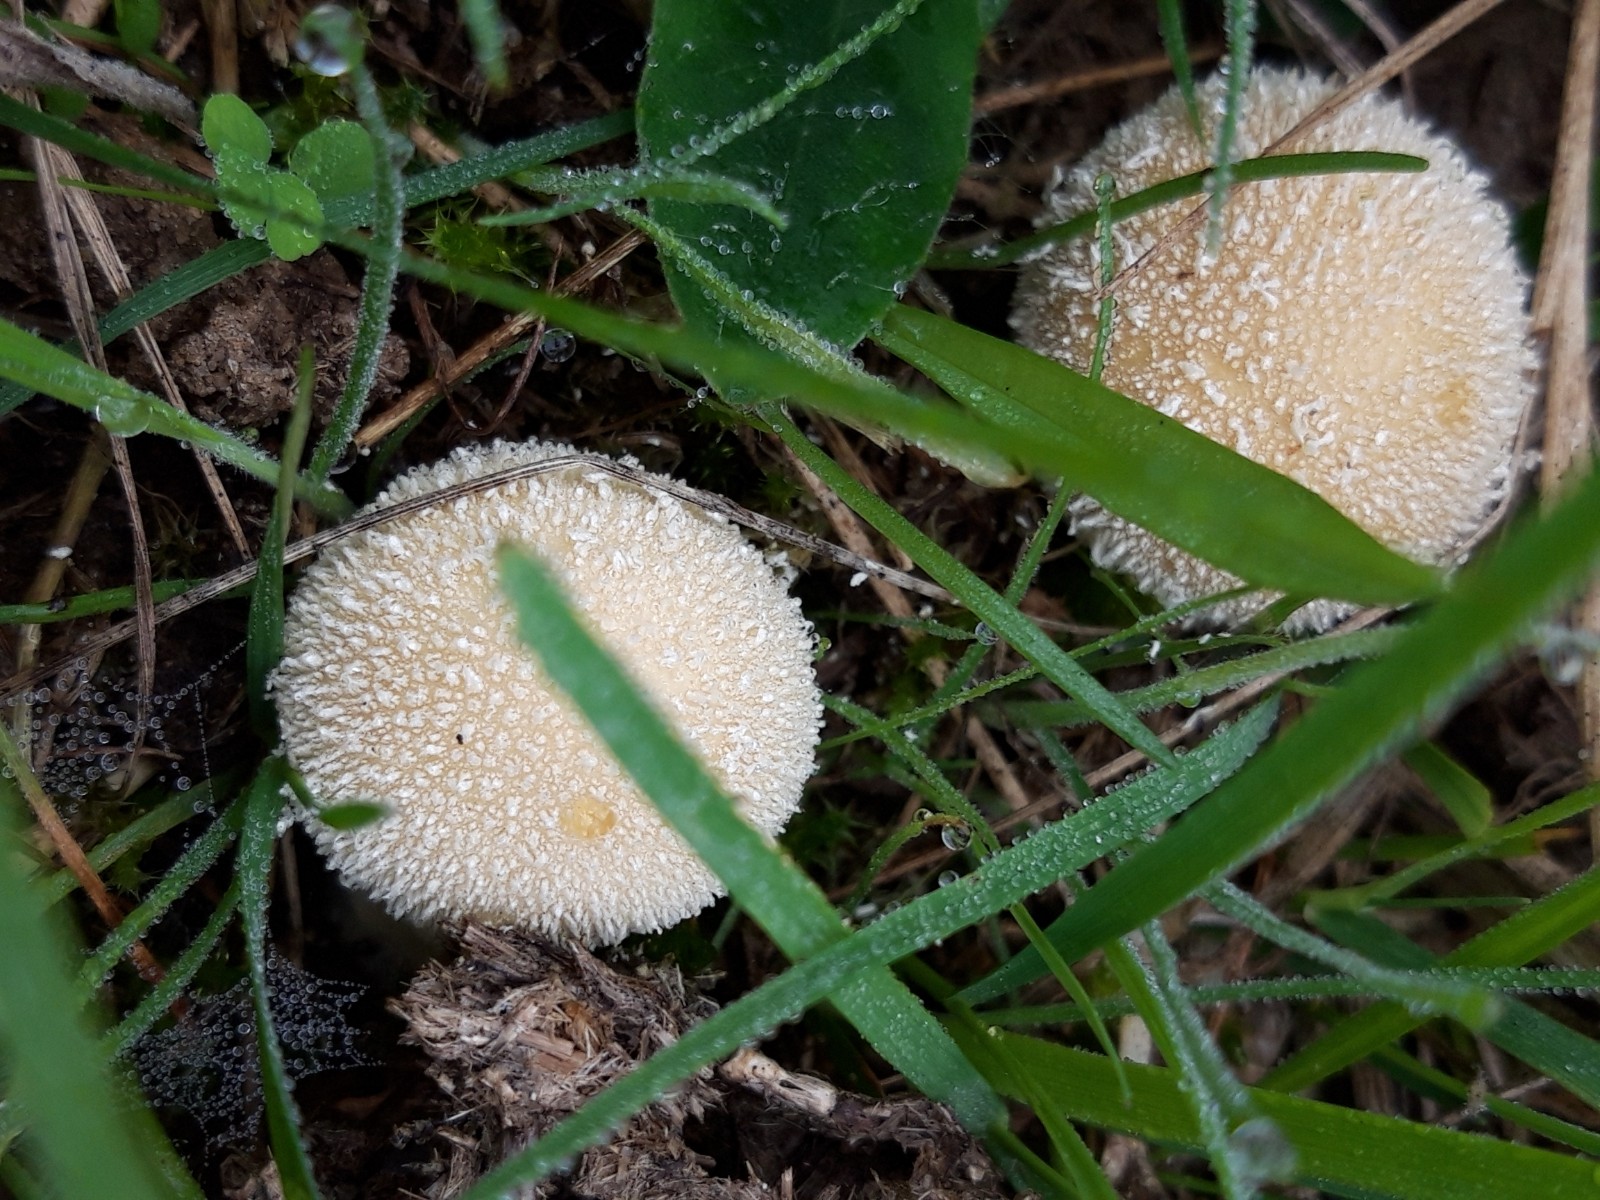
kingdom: Fungi
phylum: Basidiomycota
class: Agaricomycetes
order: Agaricales
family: Lycoperdaceae
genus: Lycoperdon
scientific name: Lycoperdon pratense
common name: flad støvbold
